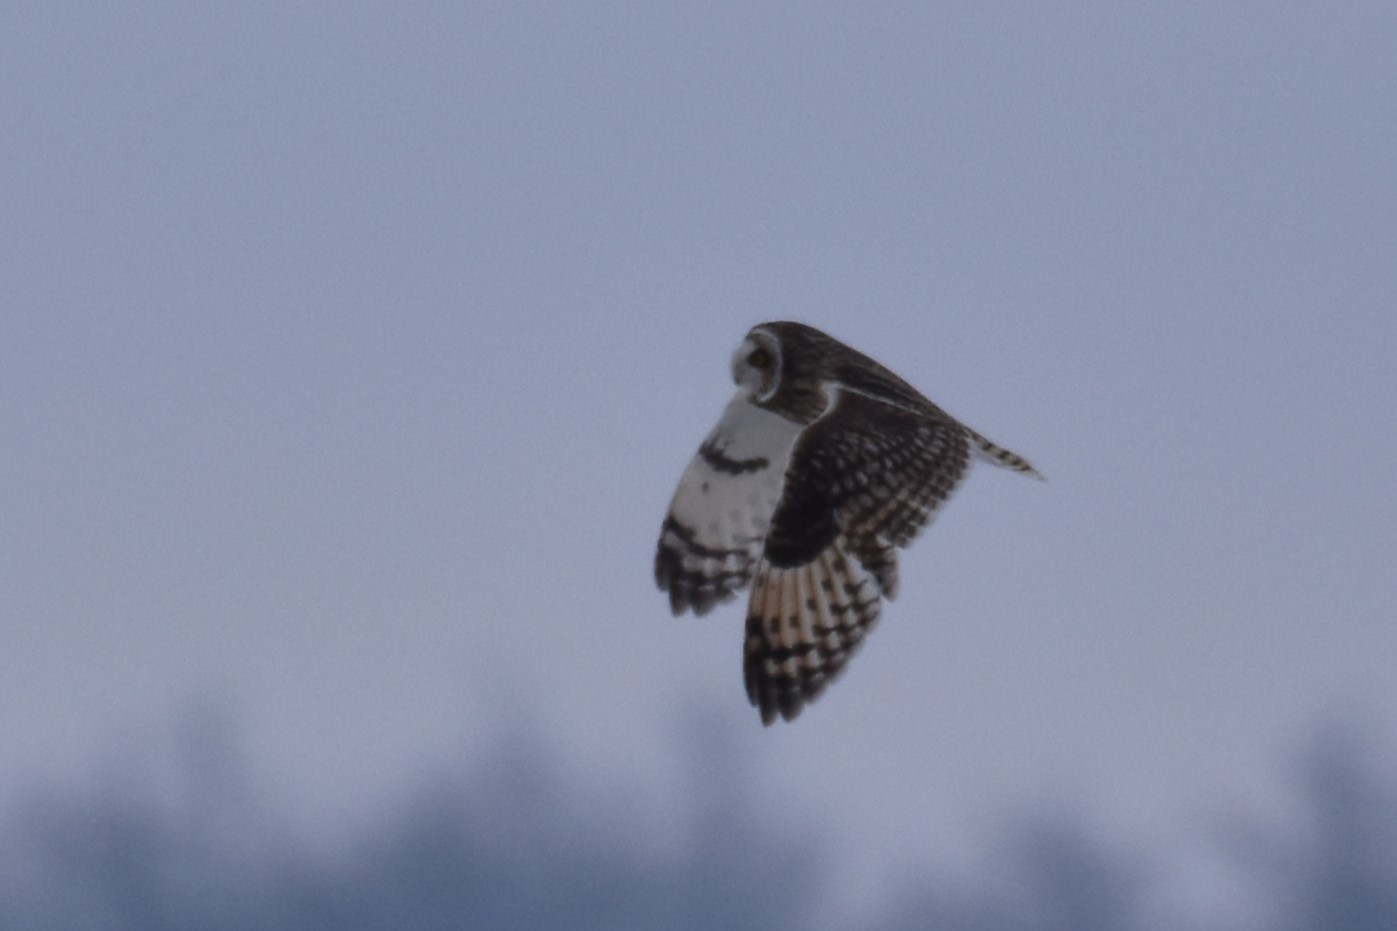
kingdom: Animalia
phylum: Chordata
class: Aves
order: Strigiformes
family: Strigidae
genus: Asio
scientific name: Asio flammeus
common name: Mosehornugle
